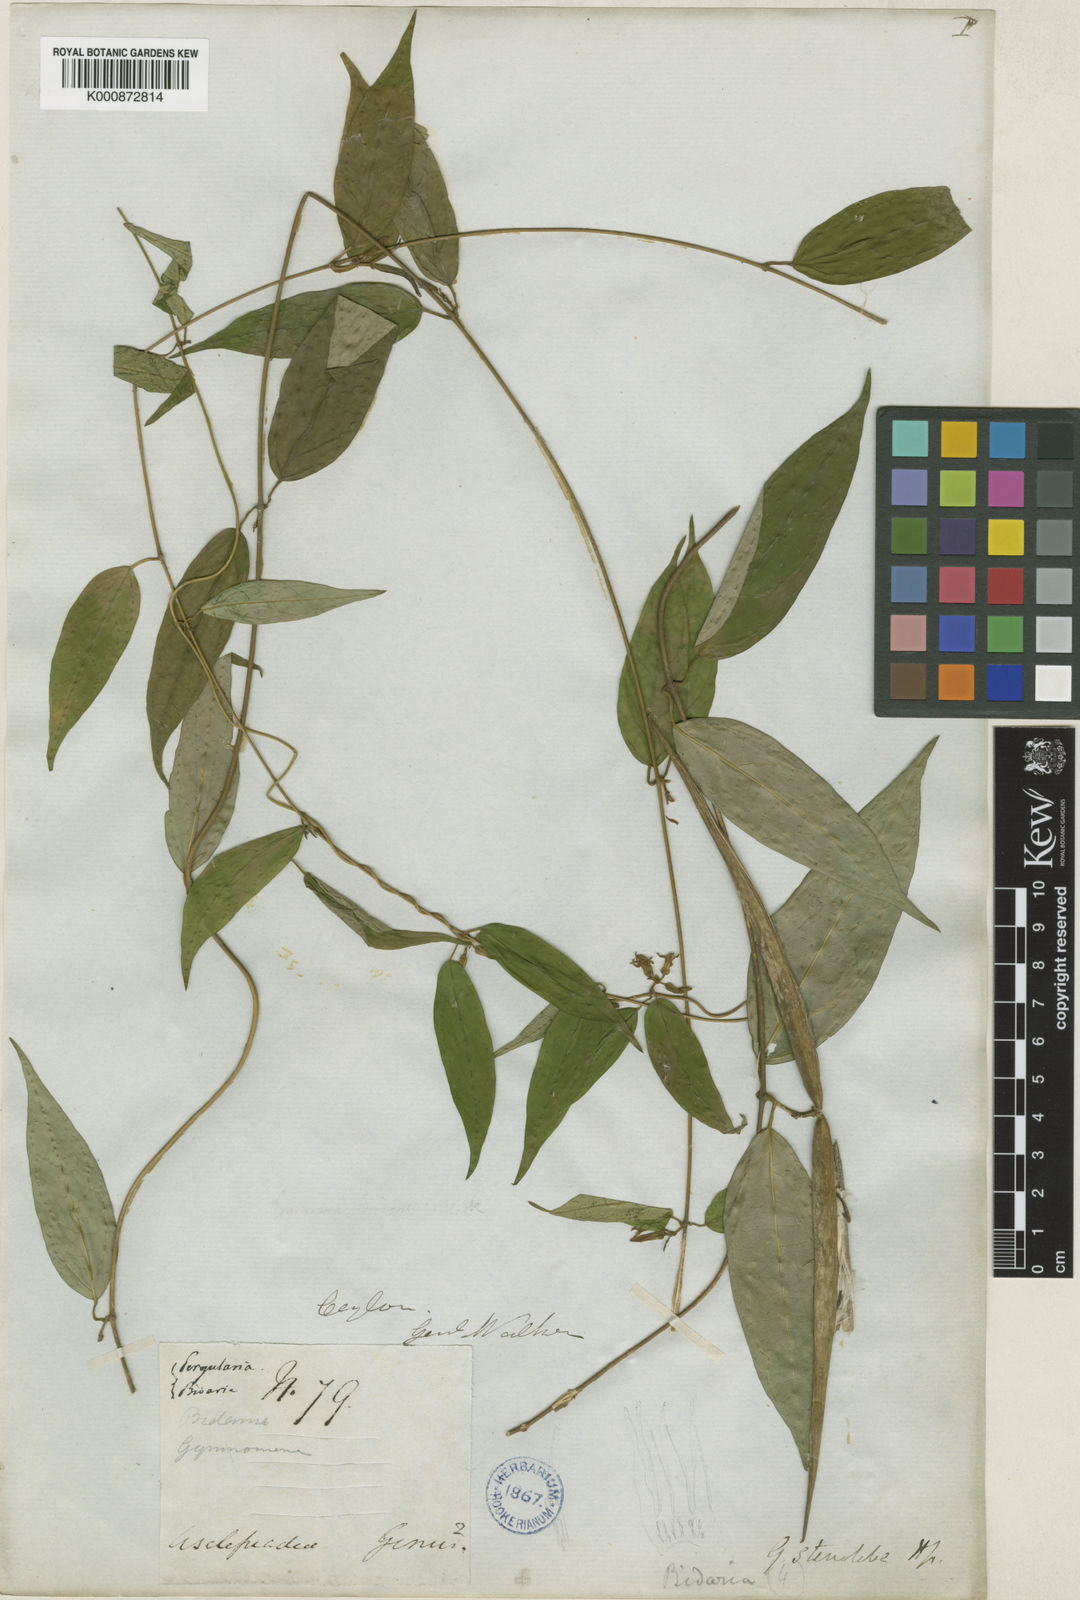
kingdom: Plantae
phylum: Tracheophyta
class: Magnoliopsida
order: Gentianales
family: Apocynaceae
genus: Gymnema
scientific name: Gymnema cuspidatum
